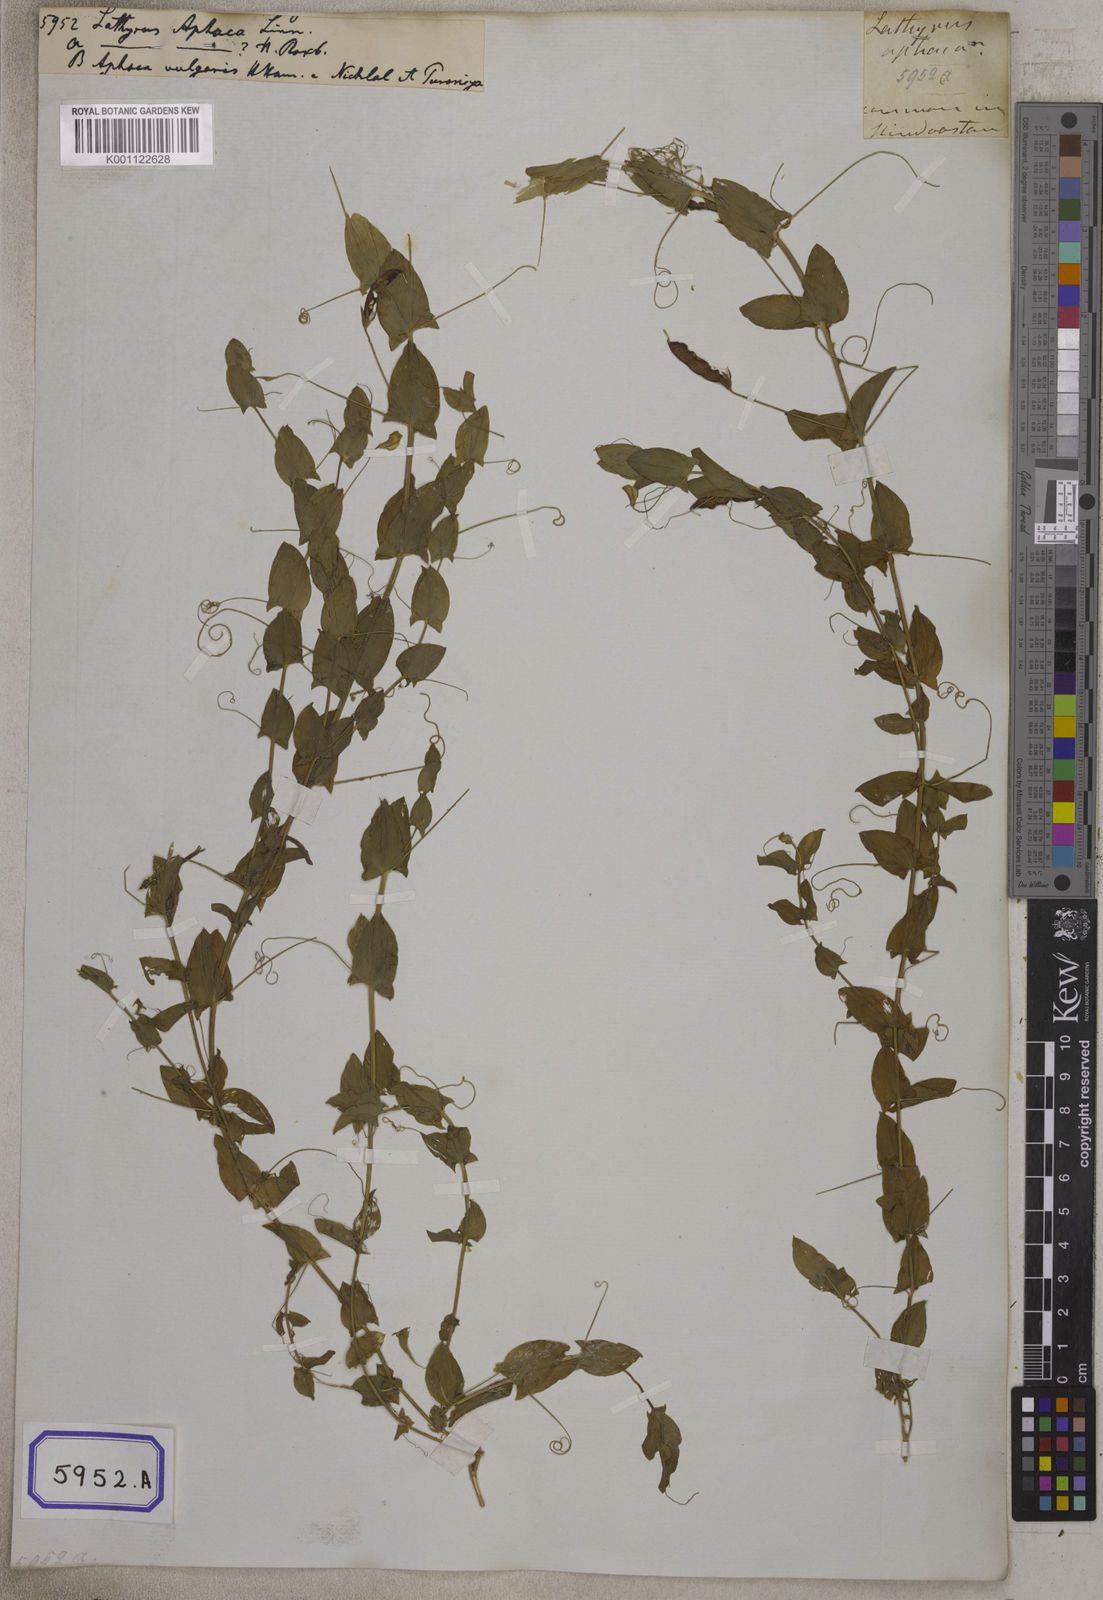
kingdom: Plantae
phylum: Tracheophyta
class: Magnoliopsida
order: Fabales
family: Fabaceae
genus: Lathyrus
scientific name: Lathyrus aphaca
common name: Yellow vetchling
